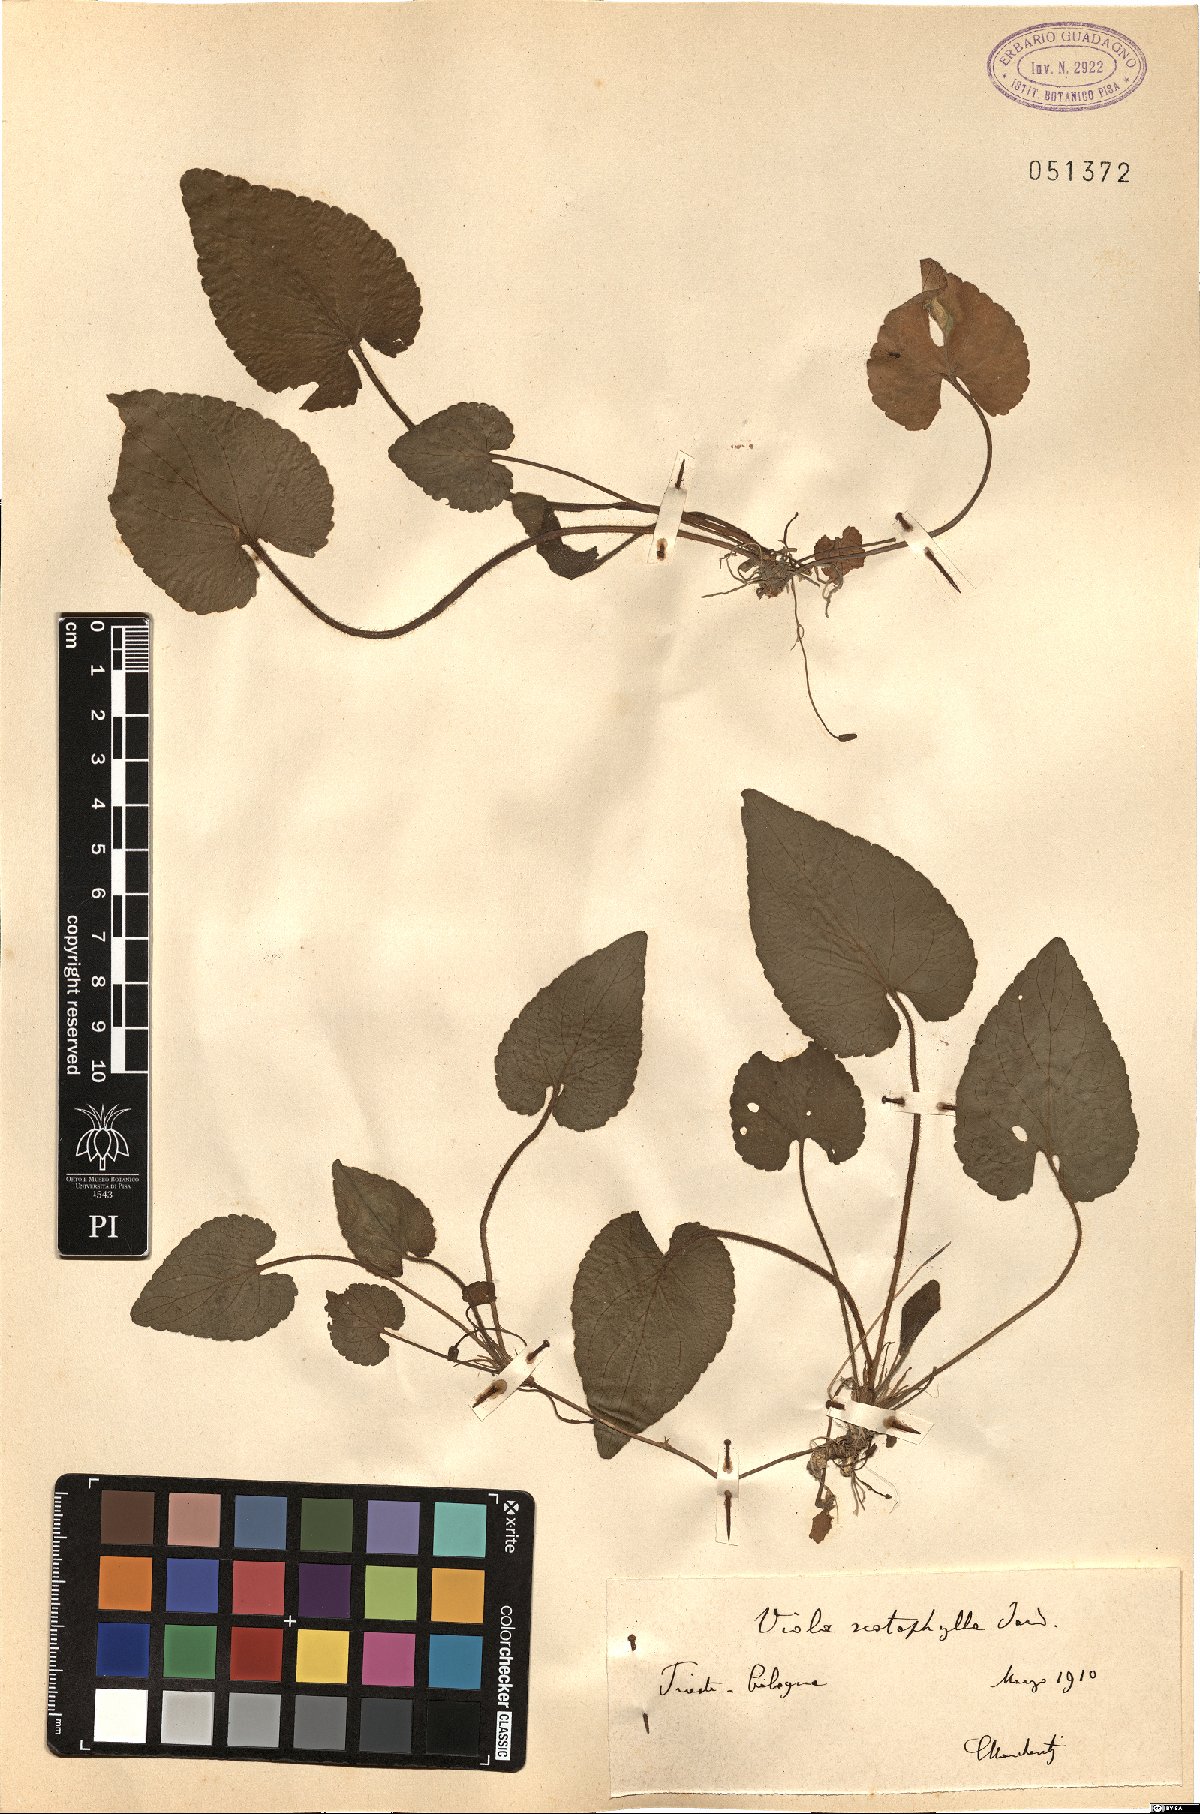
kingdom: Plantae
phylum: Tracheophyta
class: Magnoliopsida
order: Malpighiales
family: Violaceae
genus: Viola
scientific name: Viola alba
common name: White violet
